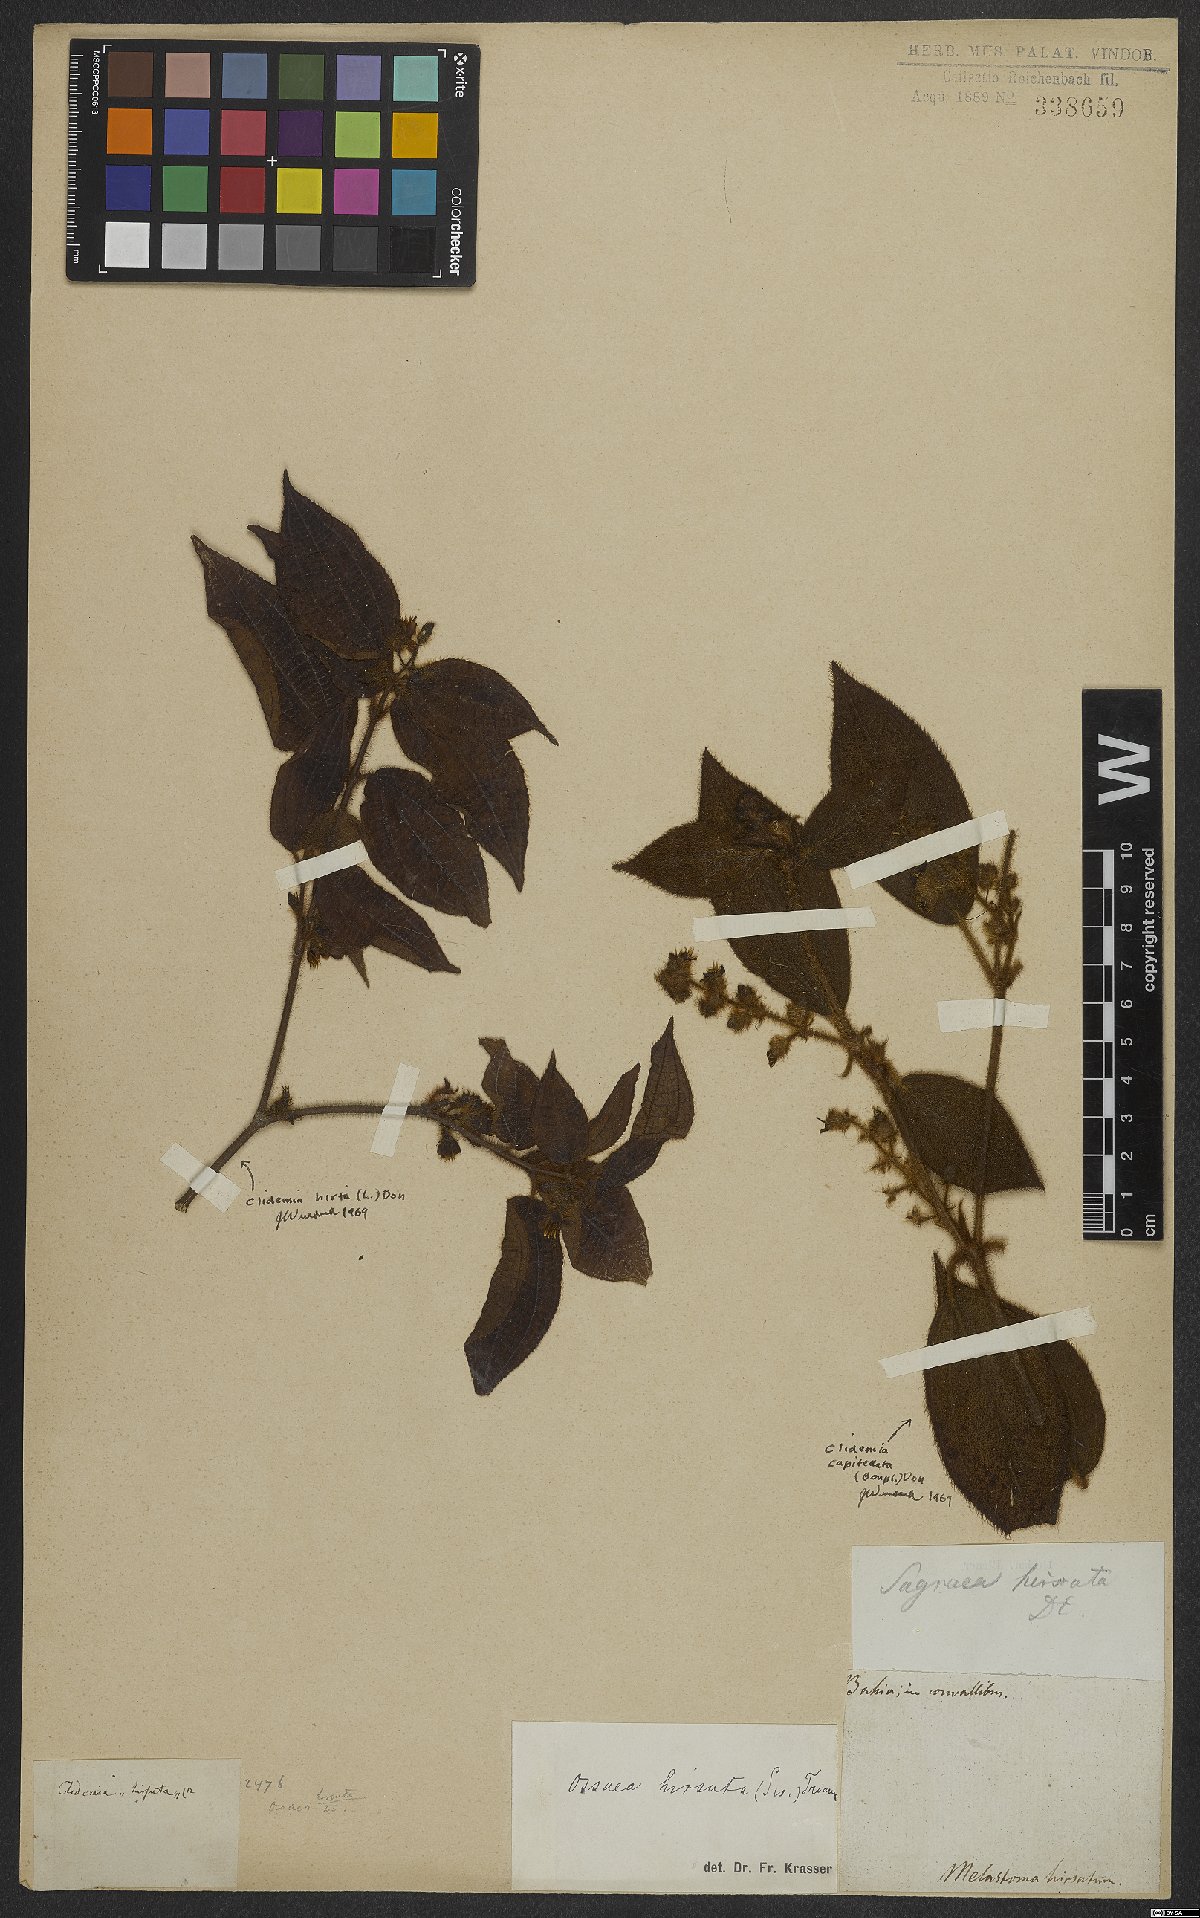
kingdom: Plantae
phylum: Tracheophyta
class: Magnoliopsida
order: Myrtales
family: Melastomataceae
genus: Miconia
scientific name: Miconia crenata
